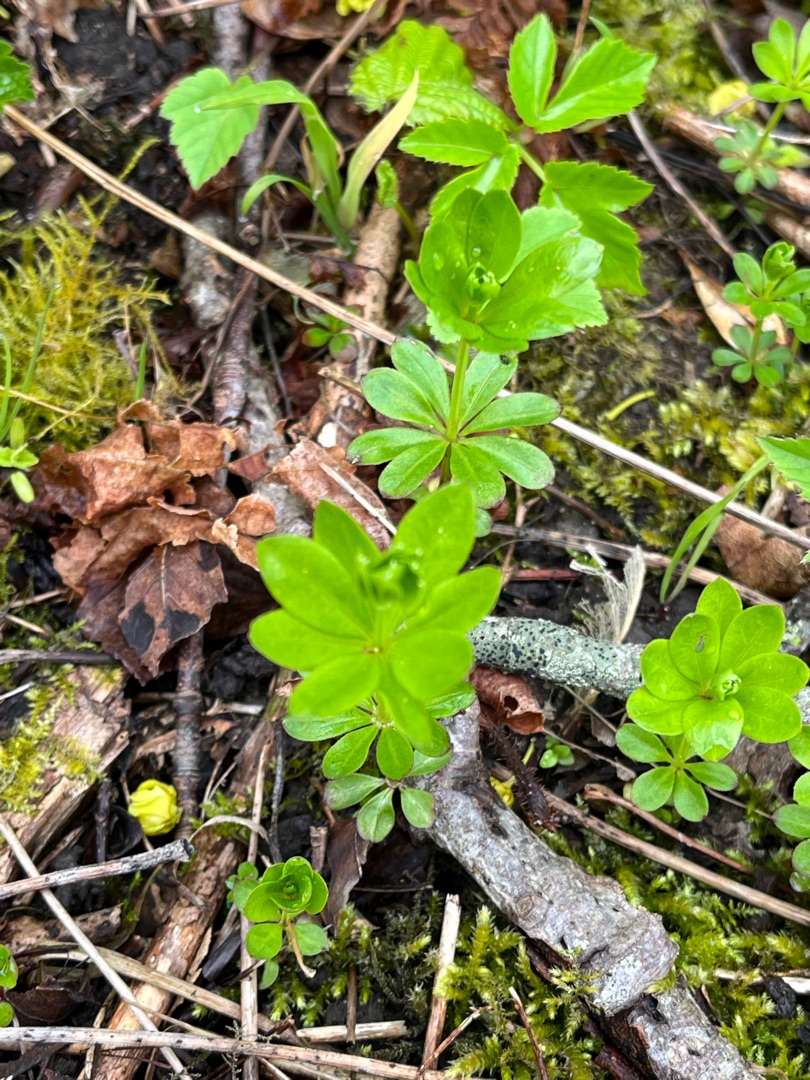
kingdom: Plantae
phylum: Tracheophyta
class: Magnoliopsida
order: Gentianales
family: Rubiaceae
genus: Galium
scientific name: Galium odoratum
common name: Skovmærke
